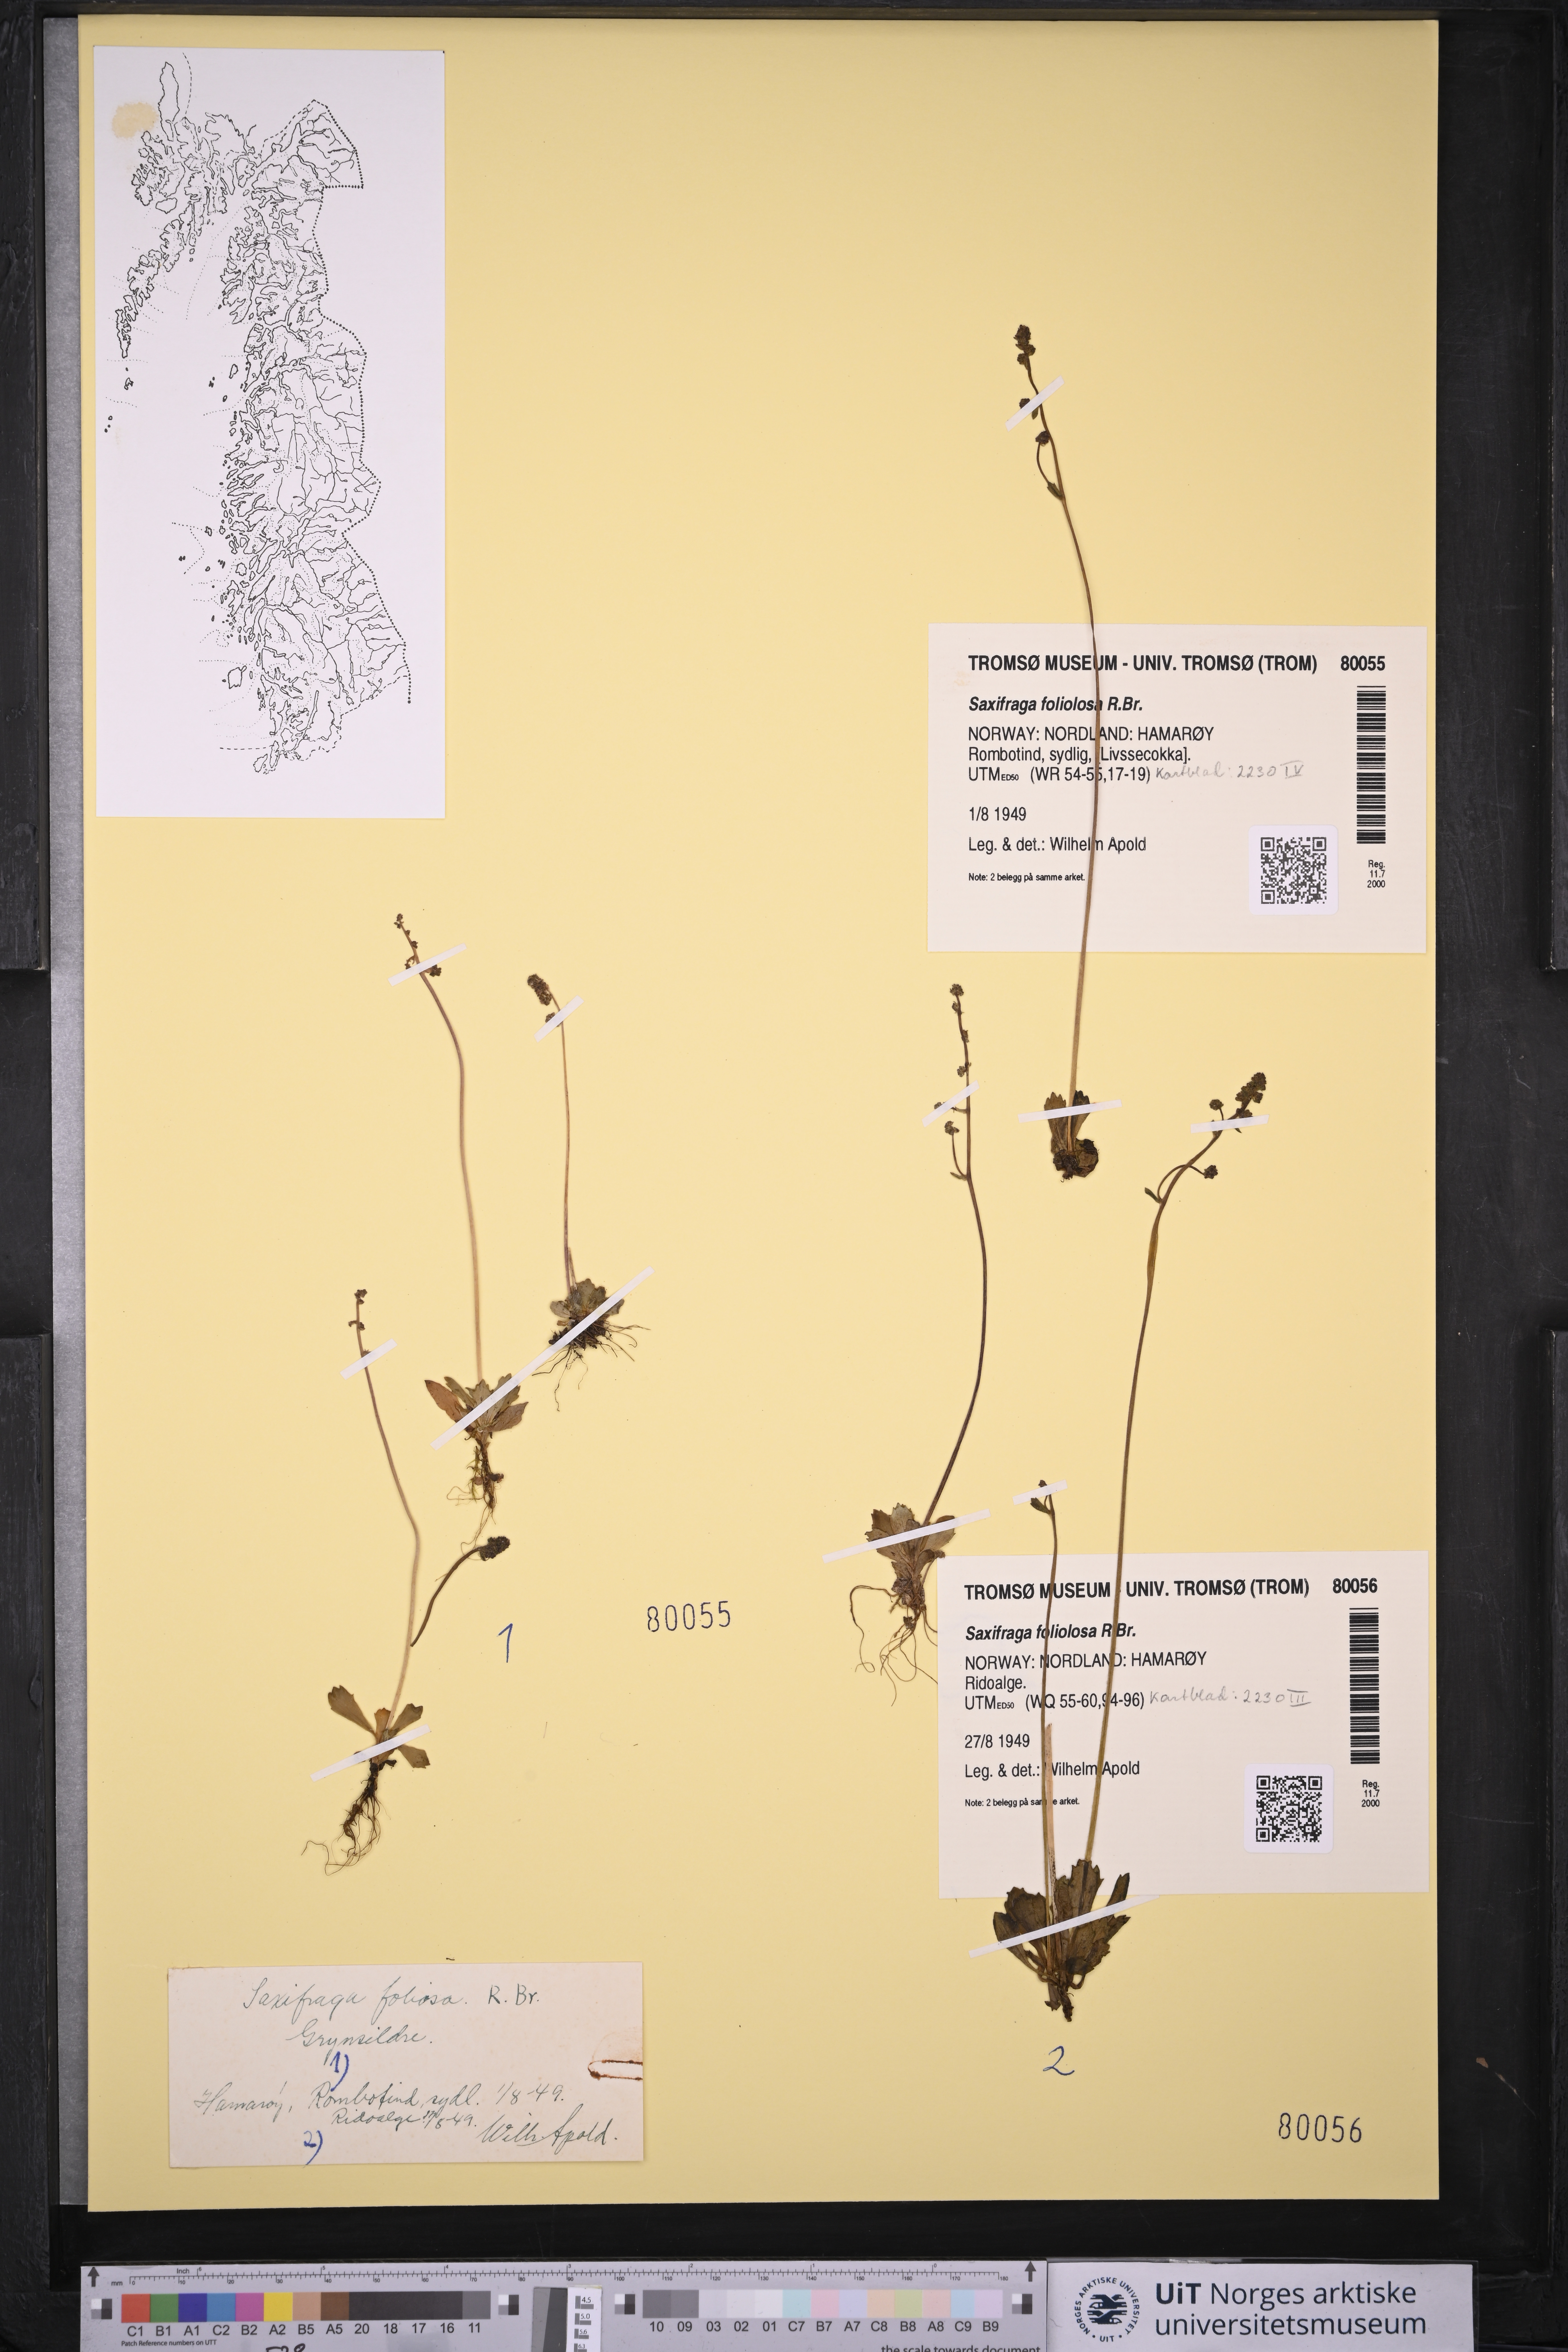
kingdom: Plantae
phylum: Tracheophyta
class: Magnoliopsida
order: Saxifragales
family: Saxifragaceae
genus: Micranthes
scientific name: Micranthes foliolosa
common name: Leafystem saxifrage
